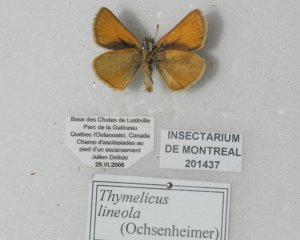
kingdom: Animalia
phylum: Arthropoda
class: Insecta
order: Lepidoptera
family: Hesperiidae
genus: Thymelicus
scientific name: Thymelicus lineola
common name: European Skipper
